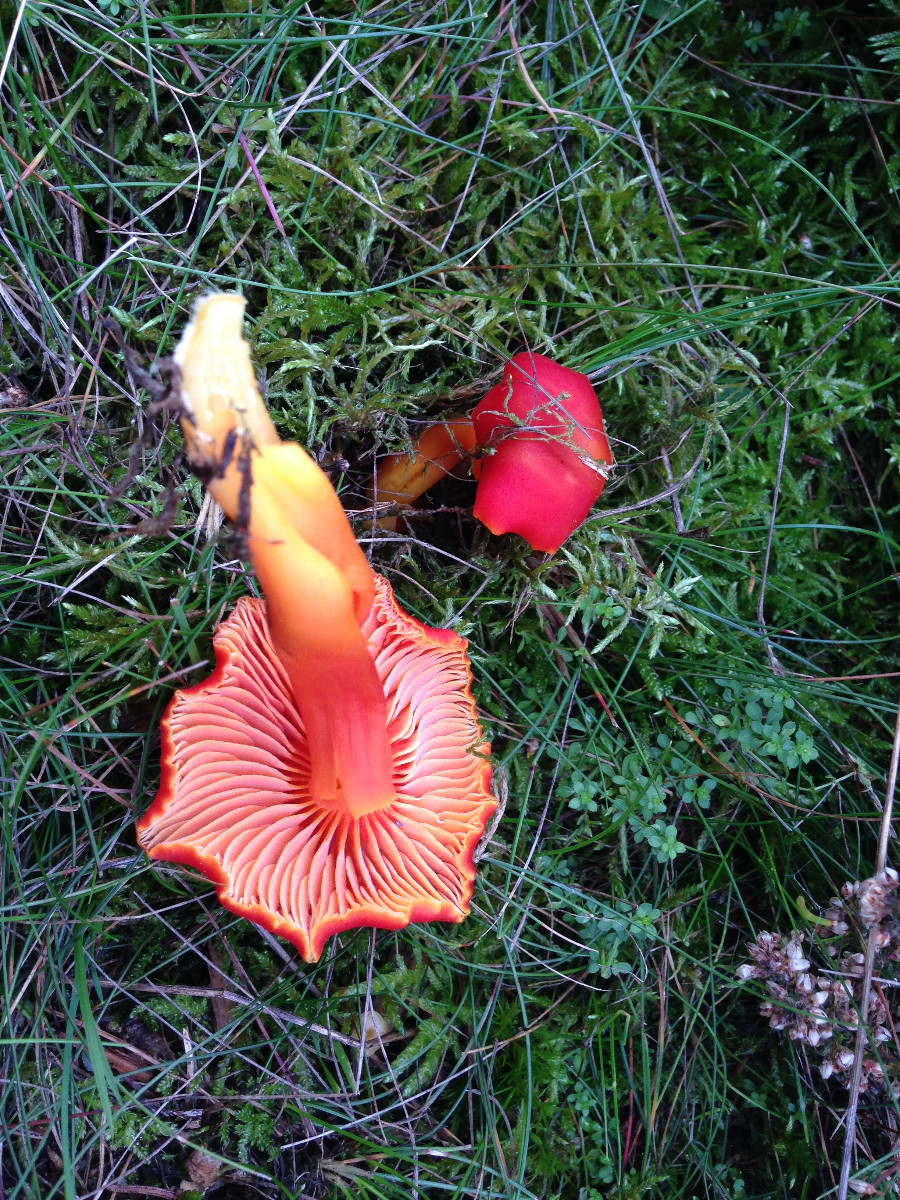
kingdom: Fungi
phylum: Basidiomycota
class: Agaricomycetes
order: Agaricales
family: Hygrophoraceae
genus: Hygrocybe
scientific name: Hygrocybe coccinea
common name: cinnober-vokshat
